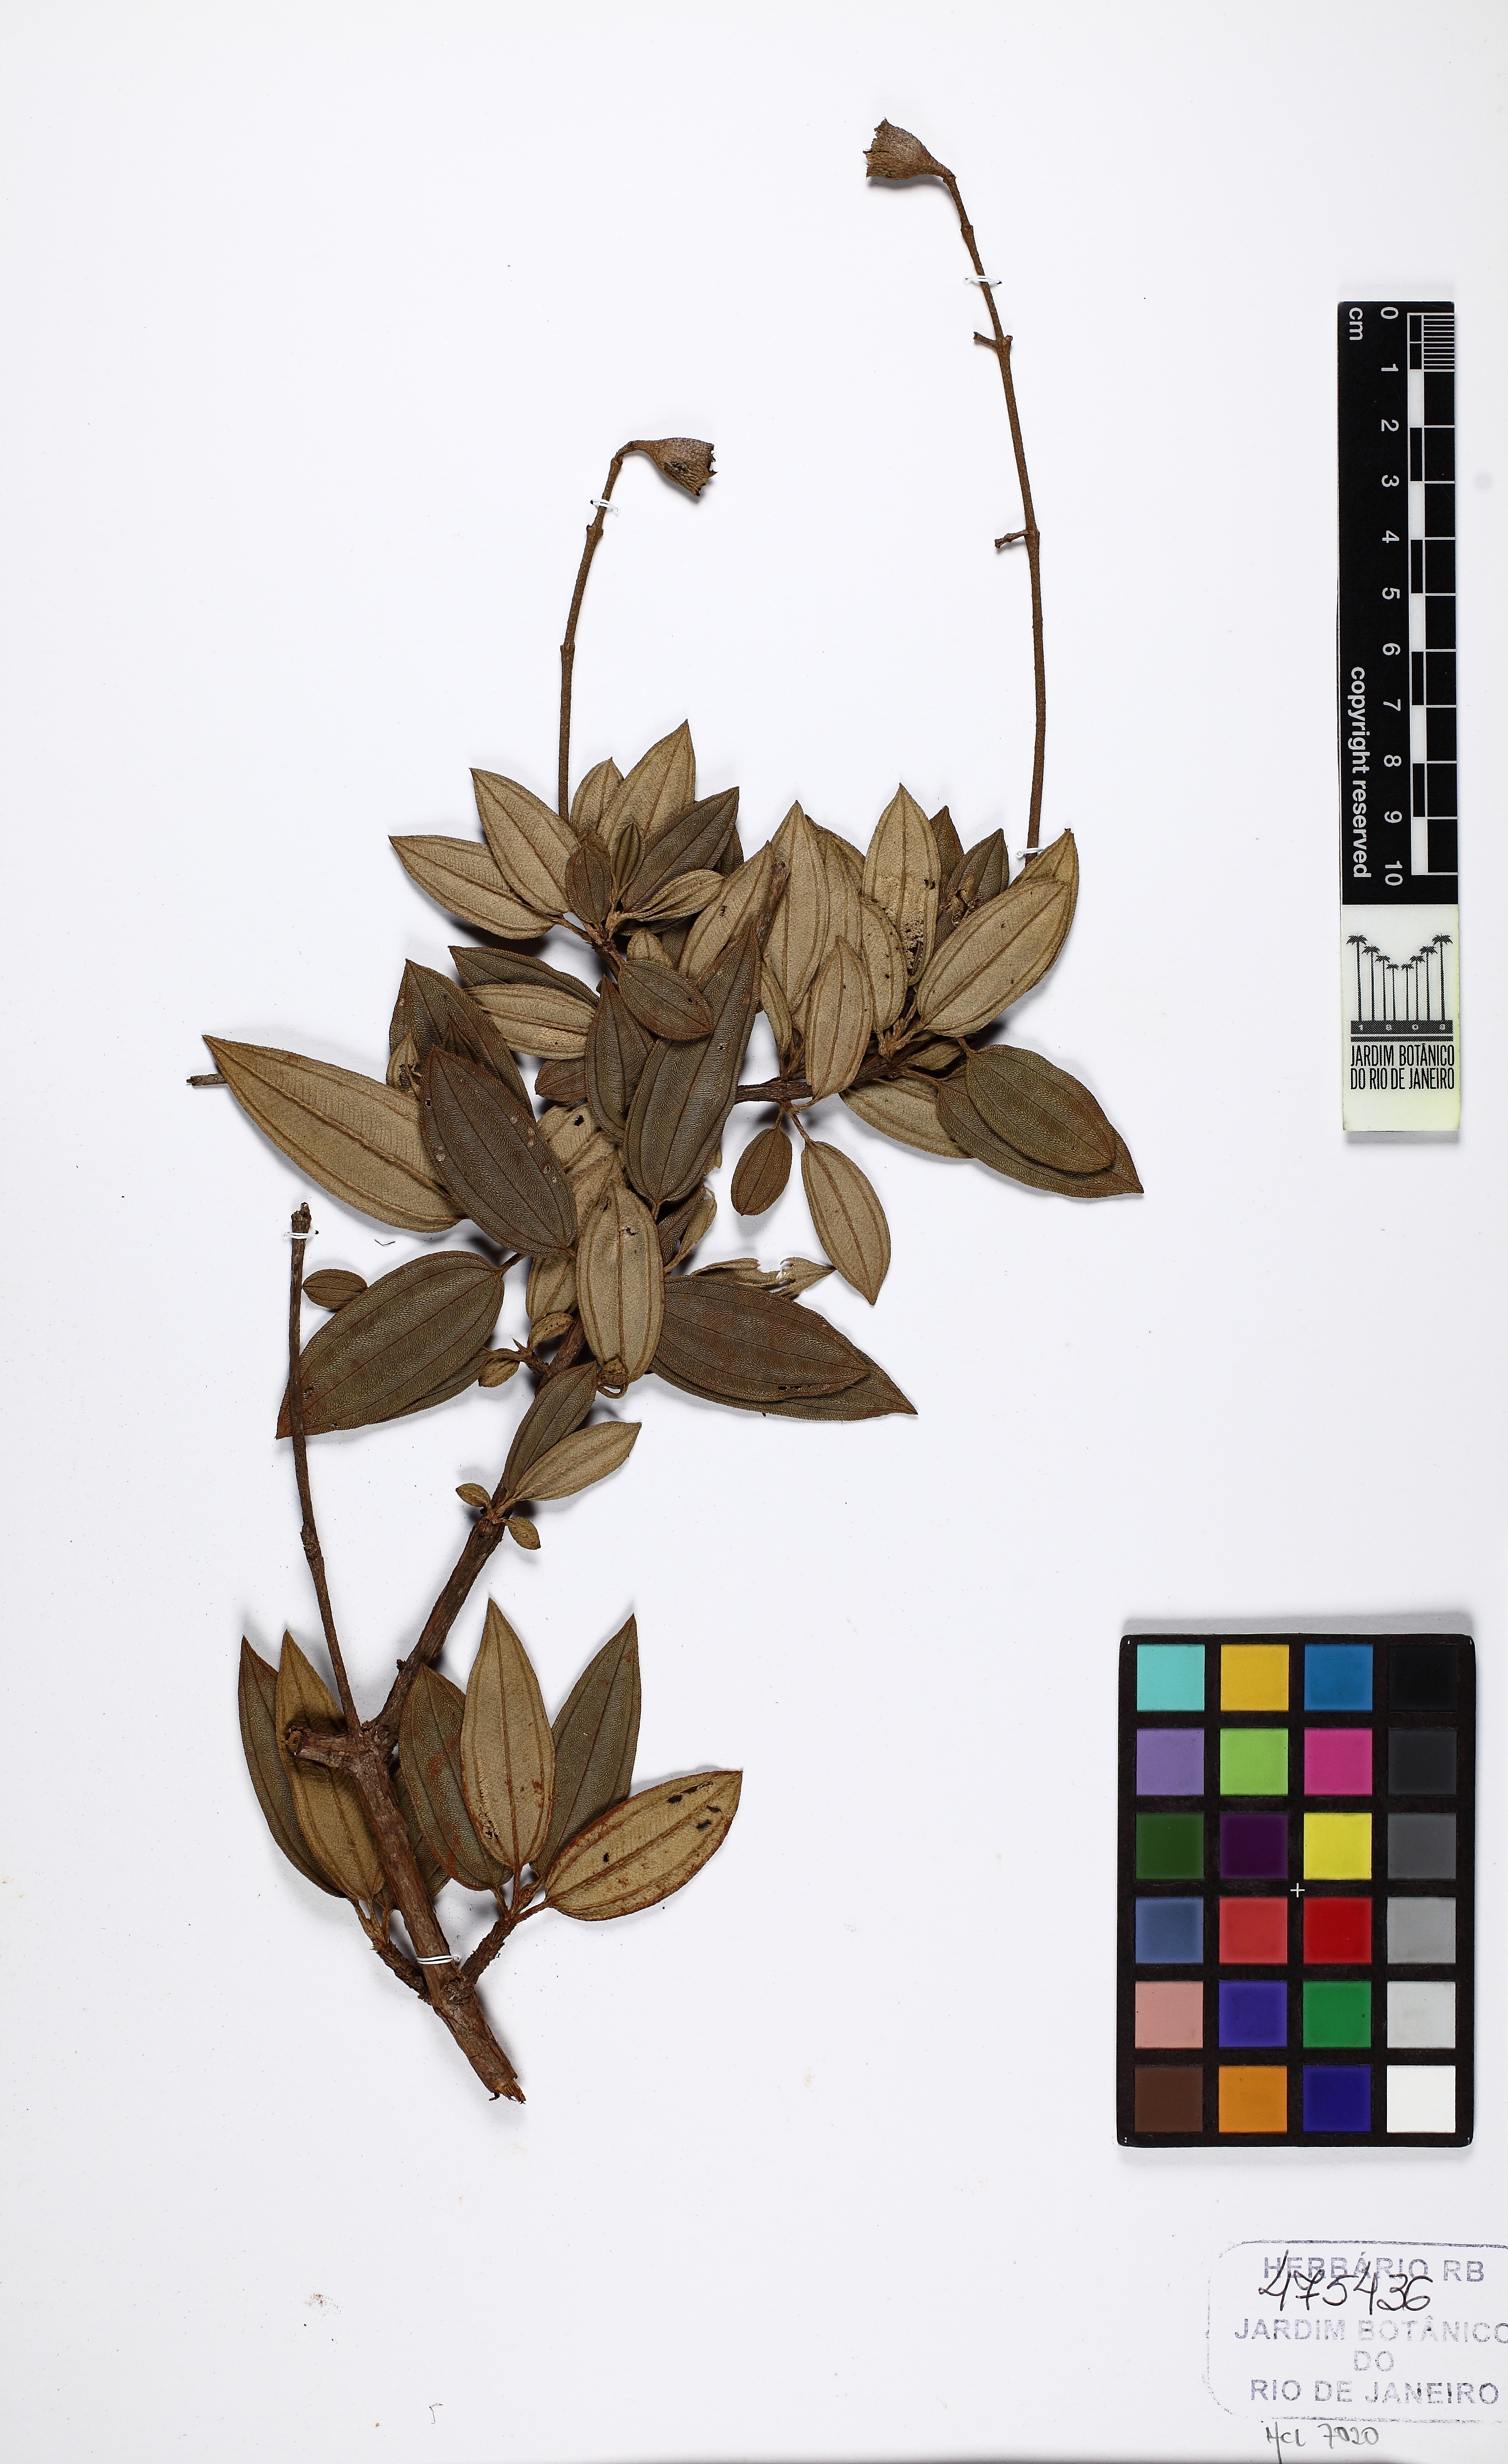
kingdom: Plantae
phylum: Tracheophyta
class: Magnoliopsida
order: Myrtales
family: Melastomataceae
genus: Tibouchina
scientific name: Tibouchina edmundoi
